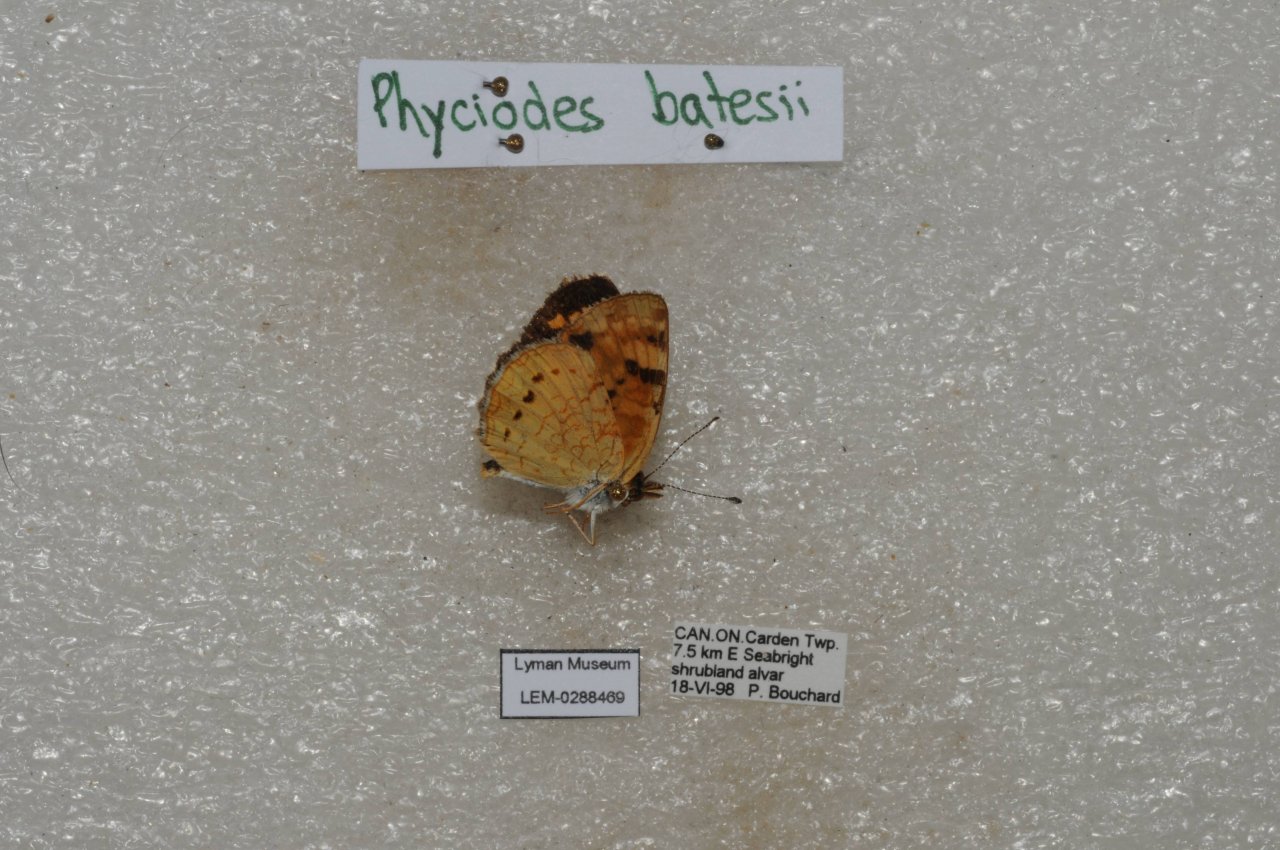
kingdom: Animalia
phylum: Arthropoda
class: Insecta
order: Lepidoptera
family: Nymphalidae
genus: Phyciodes
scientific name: Phyciodes batesii
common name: Tawny Crescent
